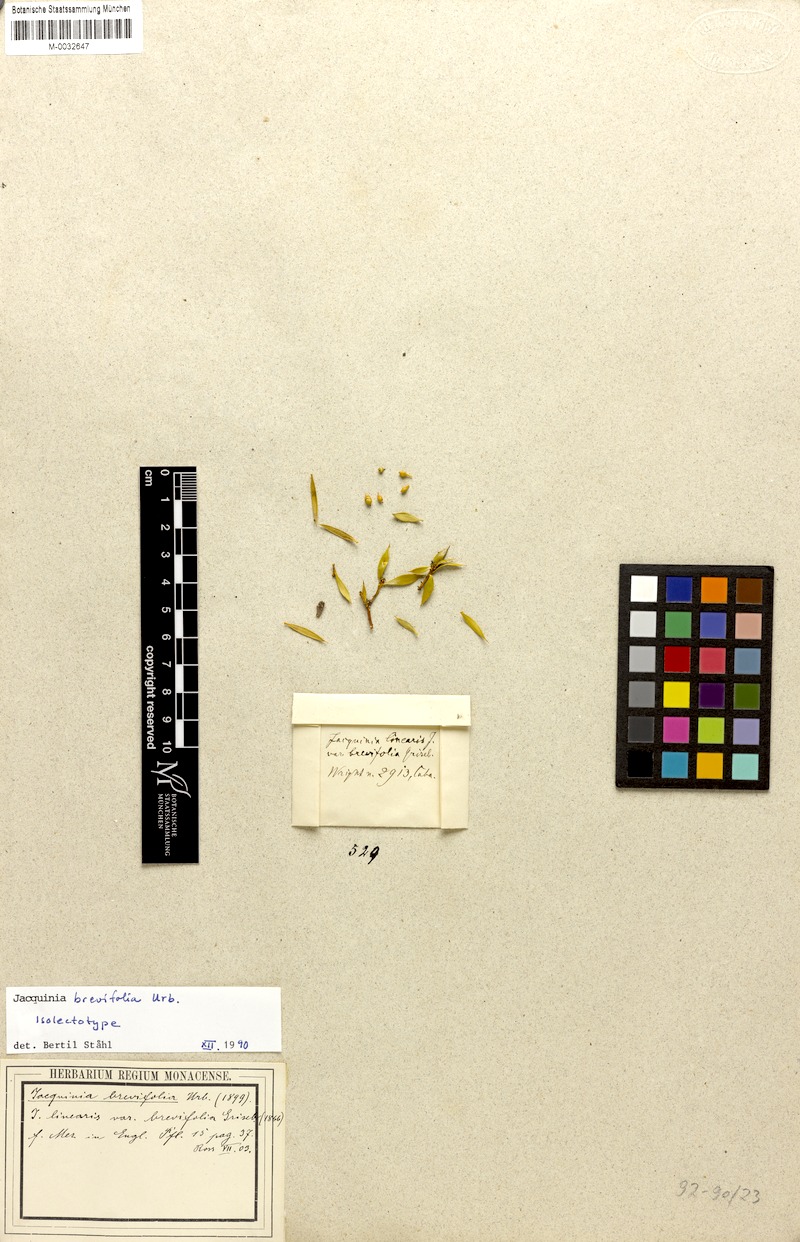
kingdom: Plantae
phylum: Tracheophyta
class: Magnoliopsida
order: Ericales
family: Primulaceae
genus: Bonellia
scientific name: Bonellia bissei
